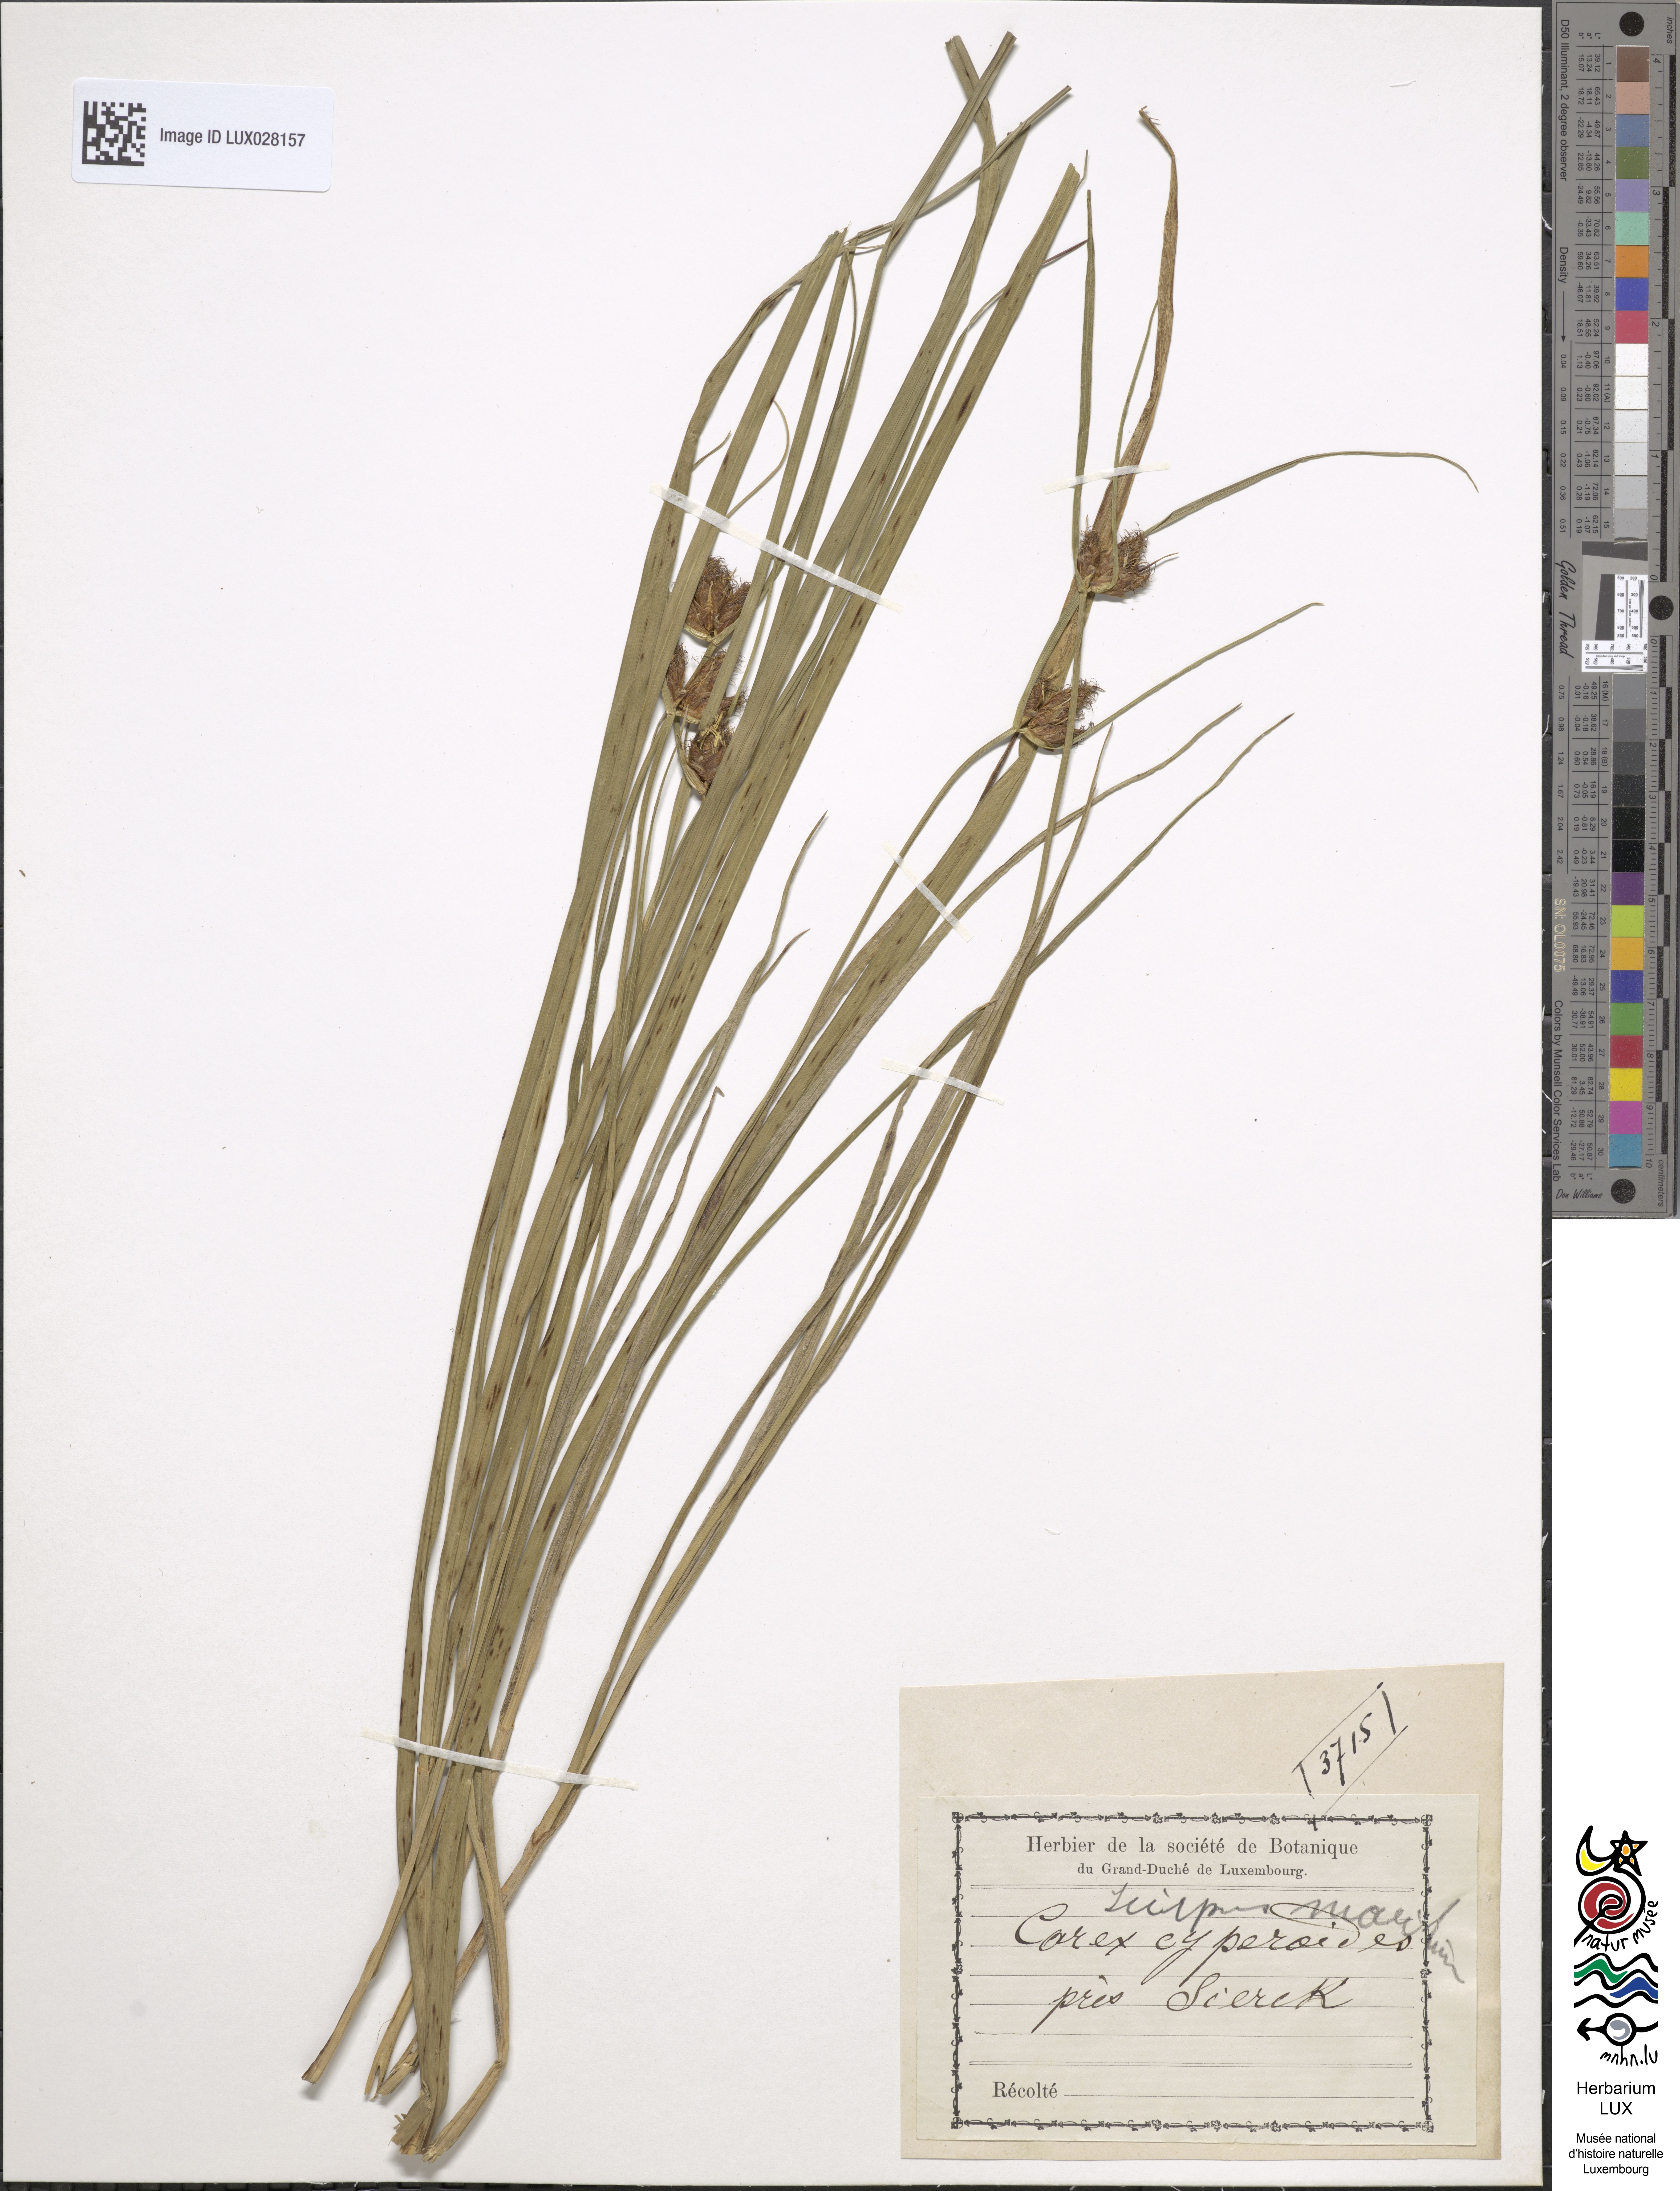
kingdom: Plantae
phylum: Tracheophyta
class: Liliopsida
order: Poales
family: Cyperaceae
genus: Bolboschoenus
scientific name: Bolboschoenus maritimus
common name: Sea club-rush
